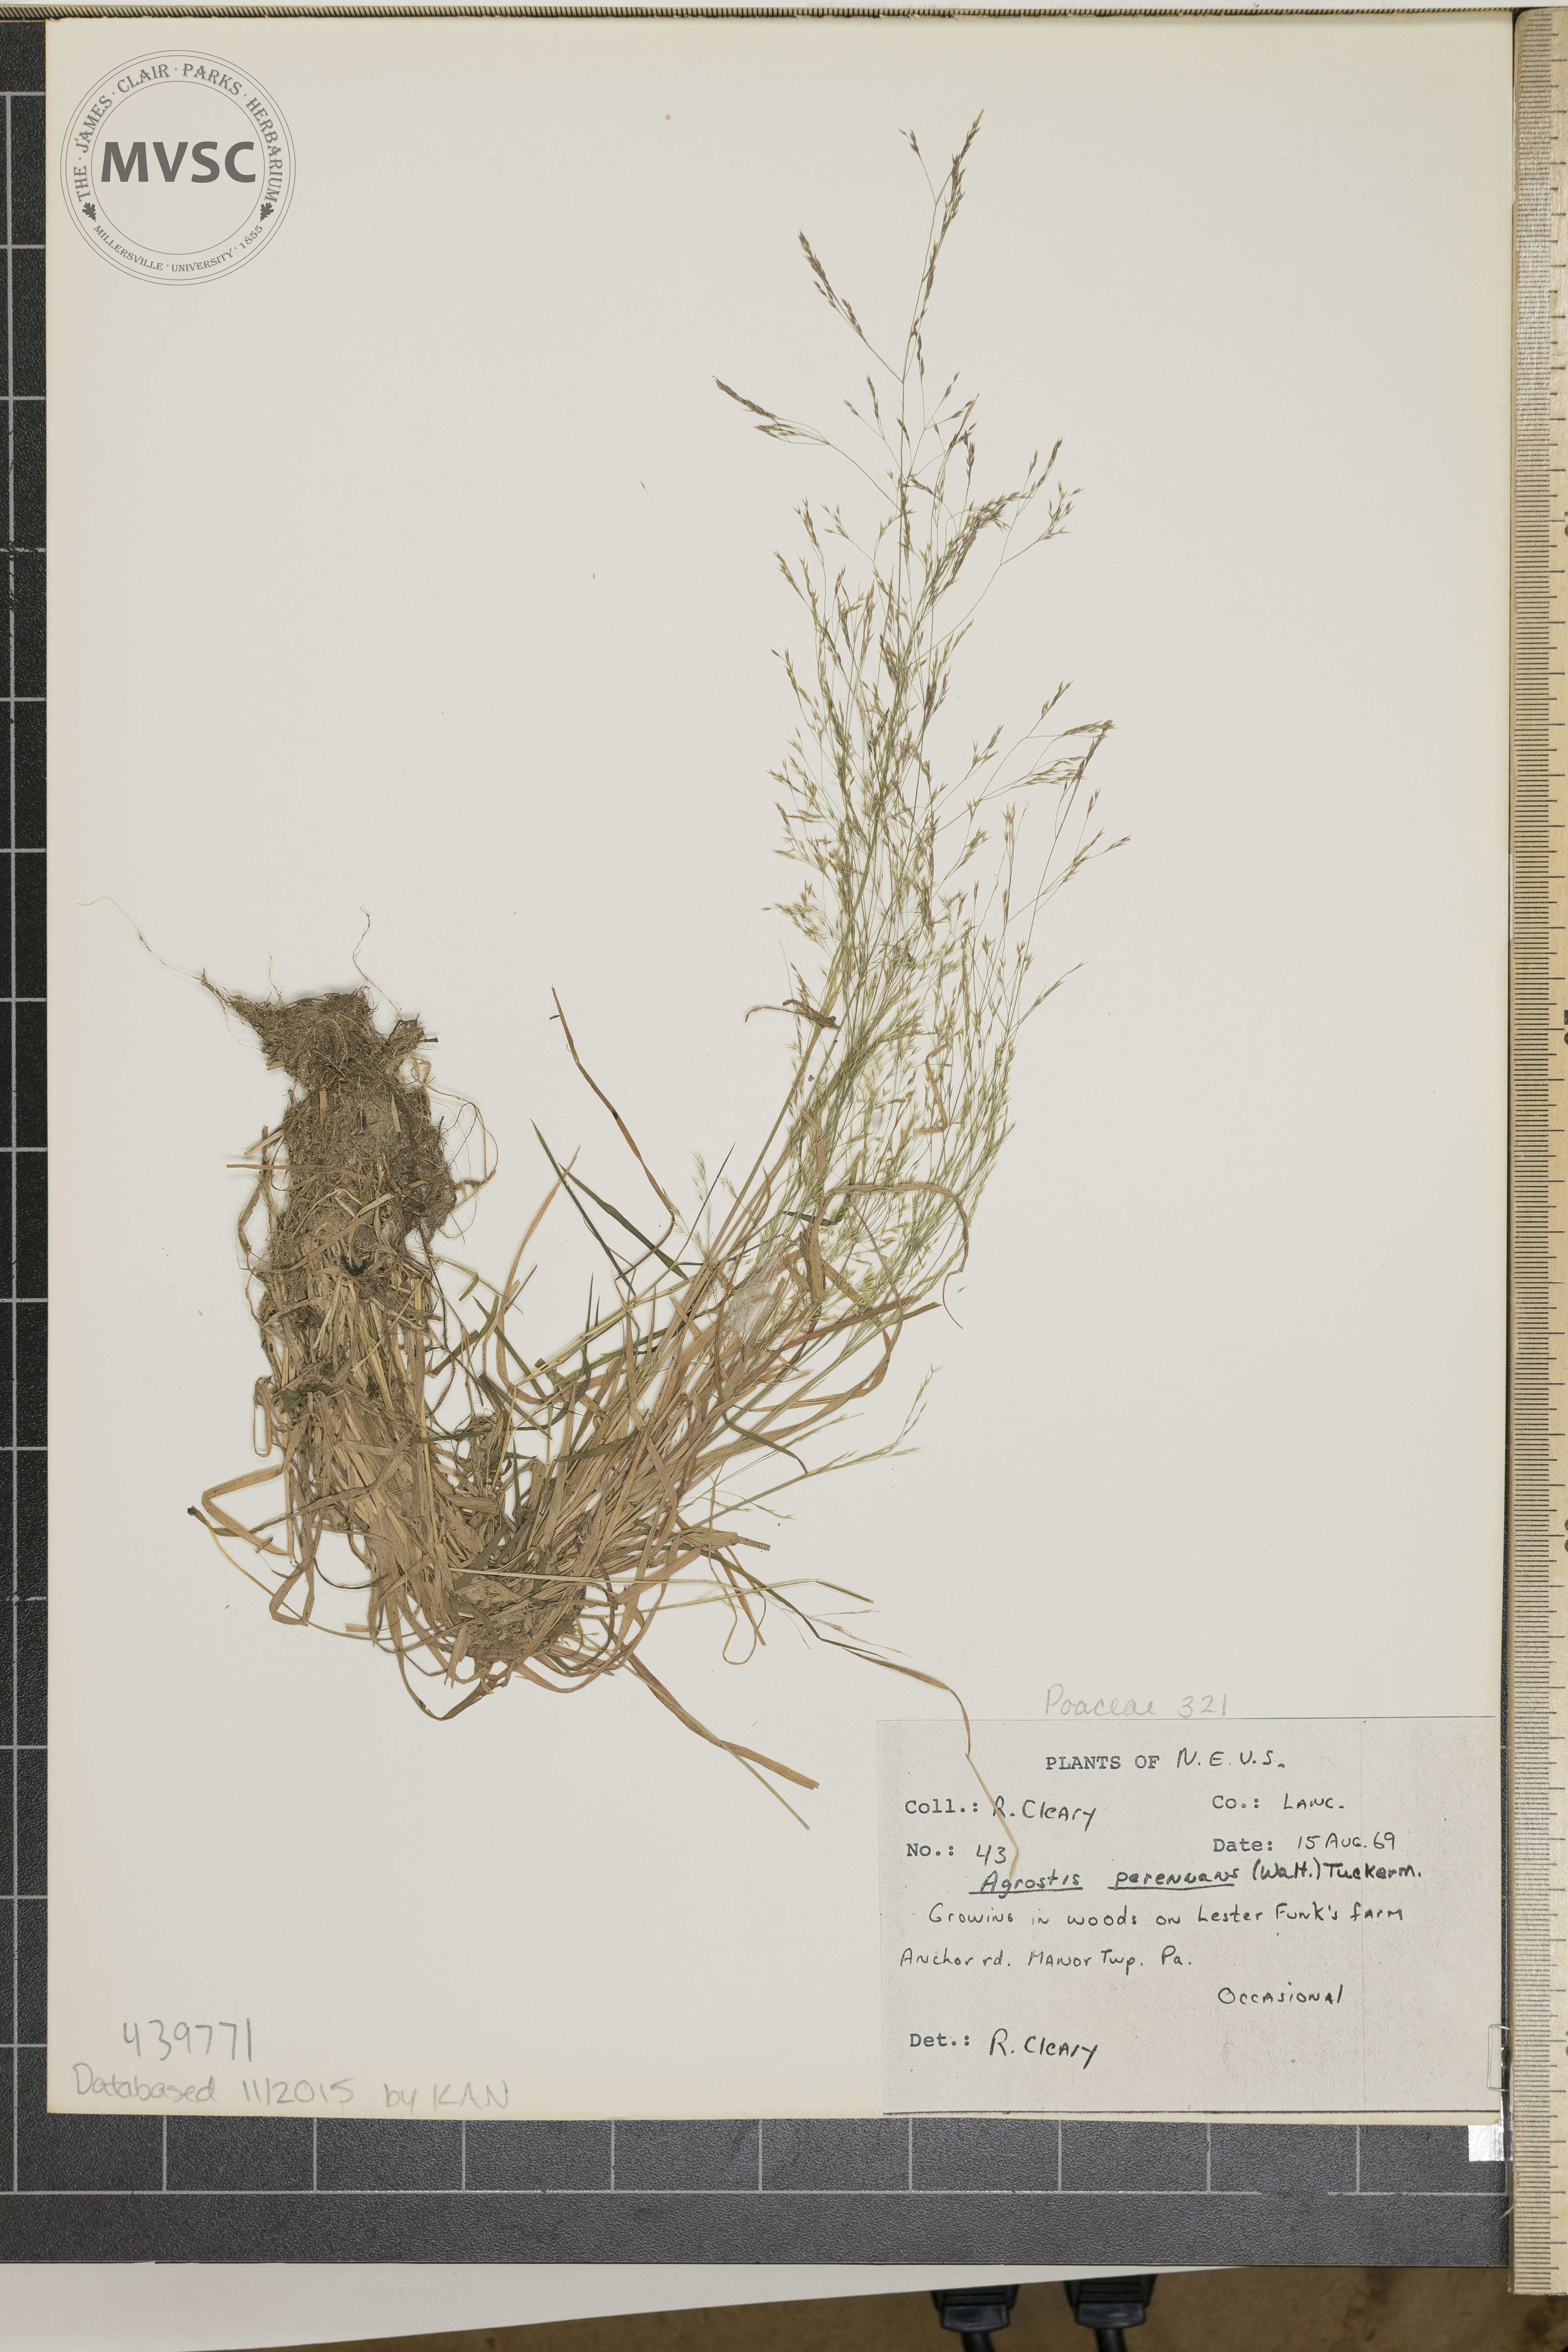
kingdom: Plantae
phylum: Tracheophyta
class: Liliopsida
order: Poales
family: Poaceae
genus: Agrostis
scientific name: Agrostis perennans
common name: Autumn bent
